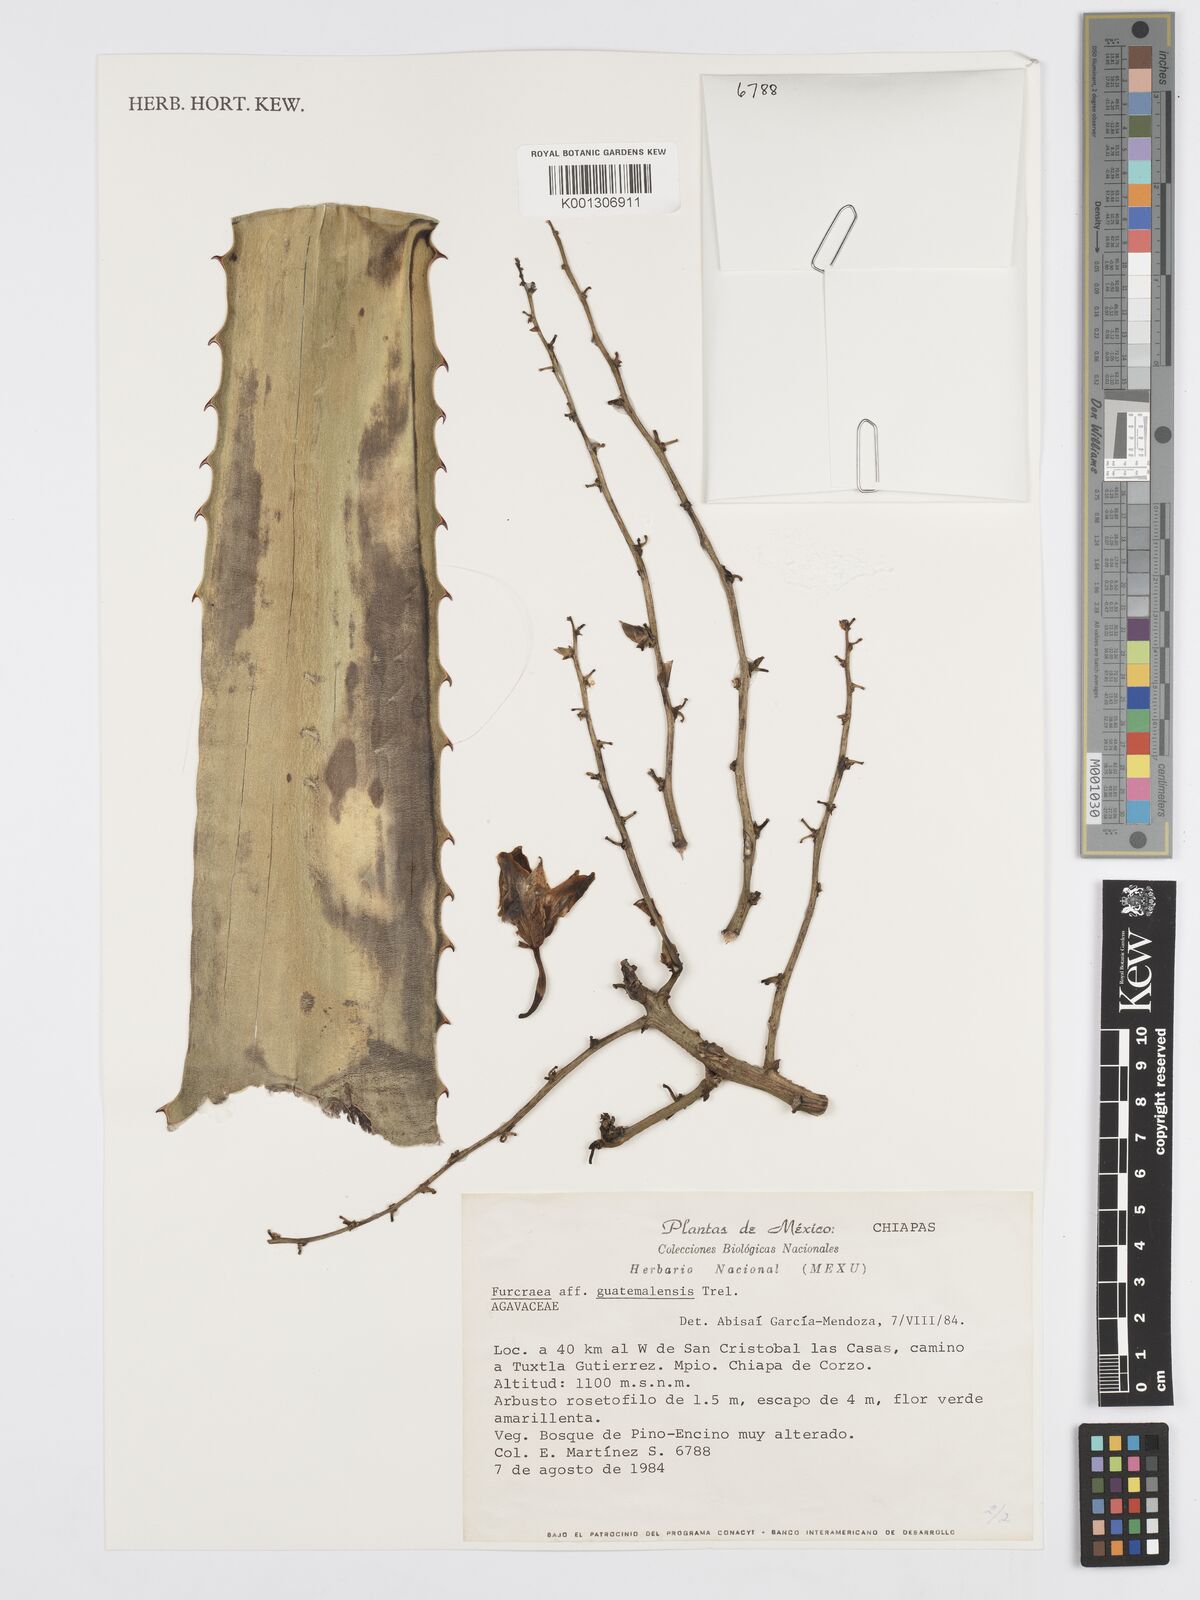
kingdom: Plantae
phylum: Tracheophyta
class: Liliopsida
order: Asparagales
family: Asparagaceae
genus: Furcraea
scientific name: Furcraea guerrerensis
